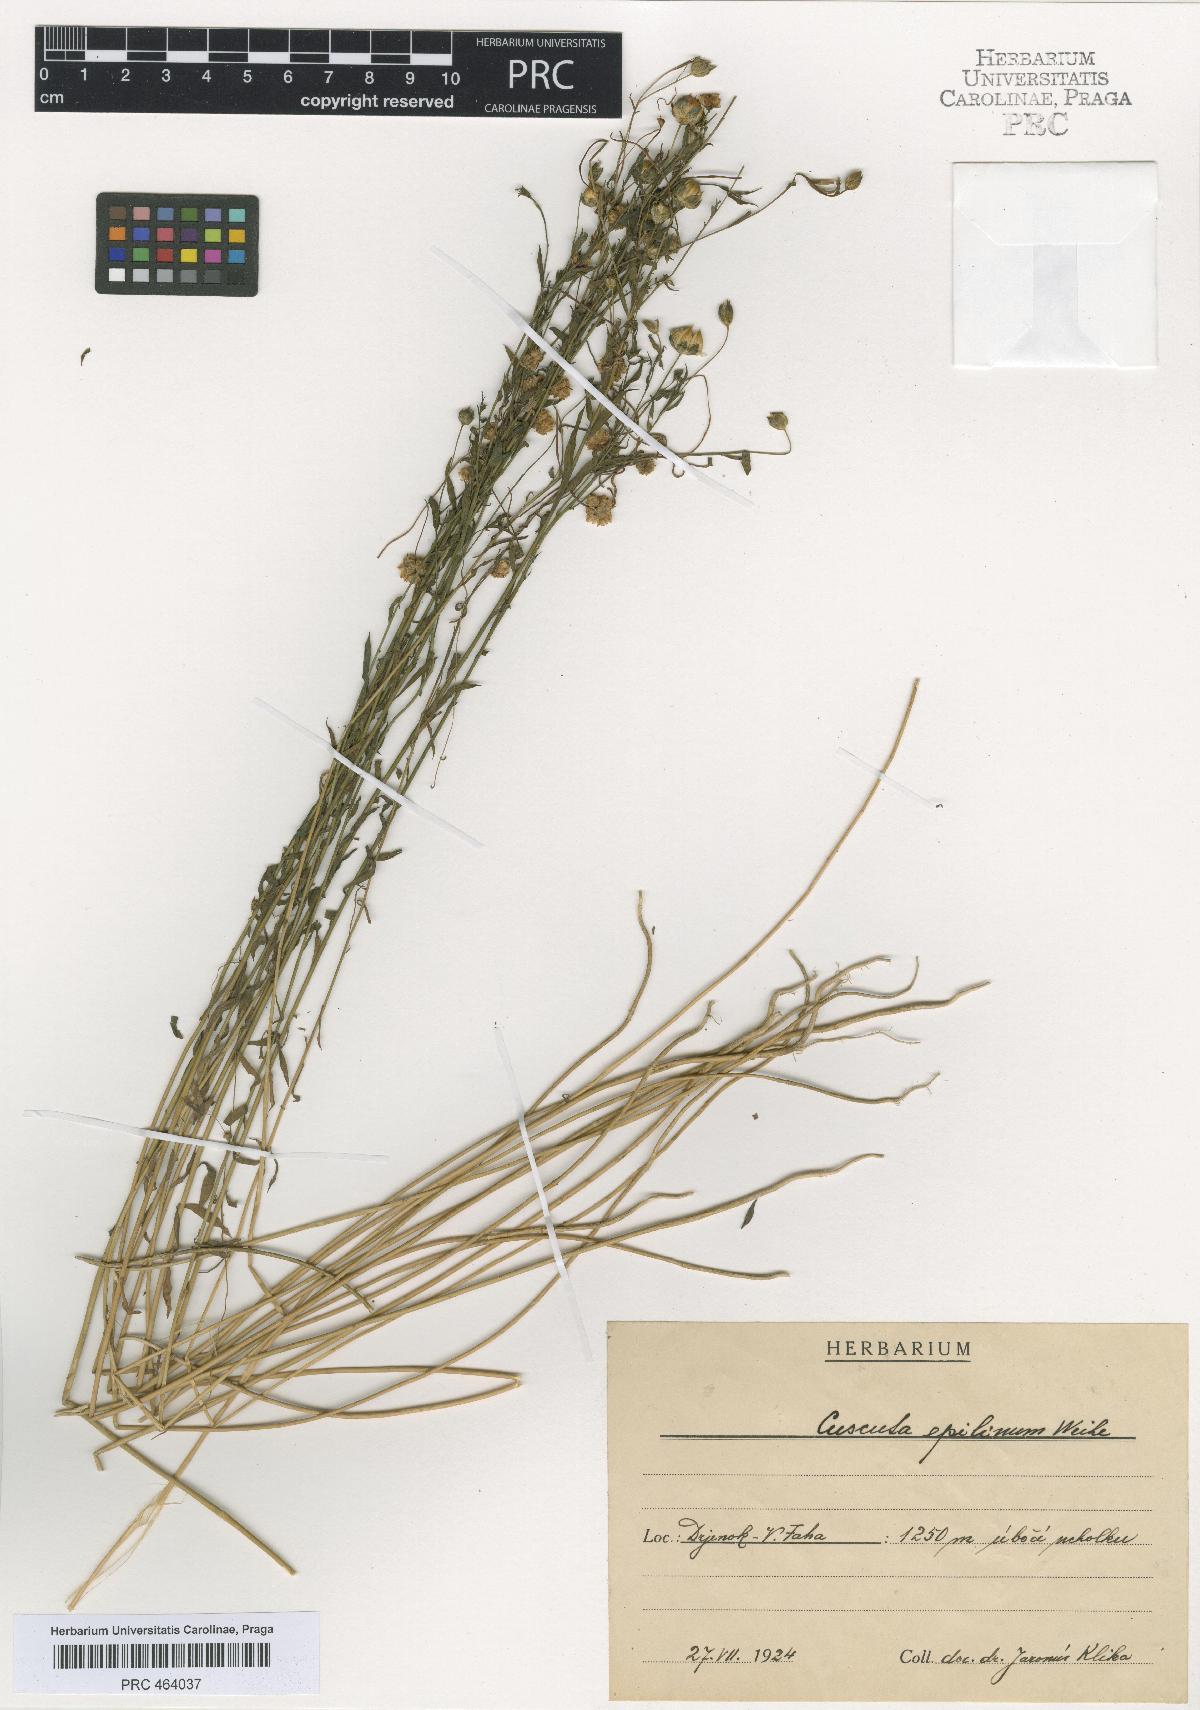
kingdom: Plantae
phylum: Tracheophyta
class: Magnoliopsida
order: Solanales
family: Convolvulaceae
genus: Cuscuta
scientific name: Cuscuta epilinum
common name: Flax dodder
